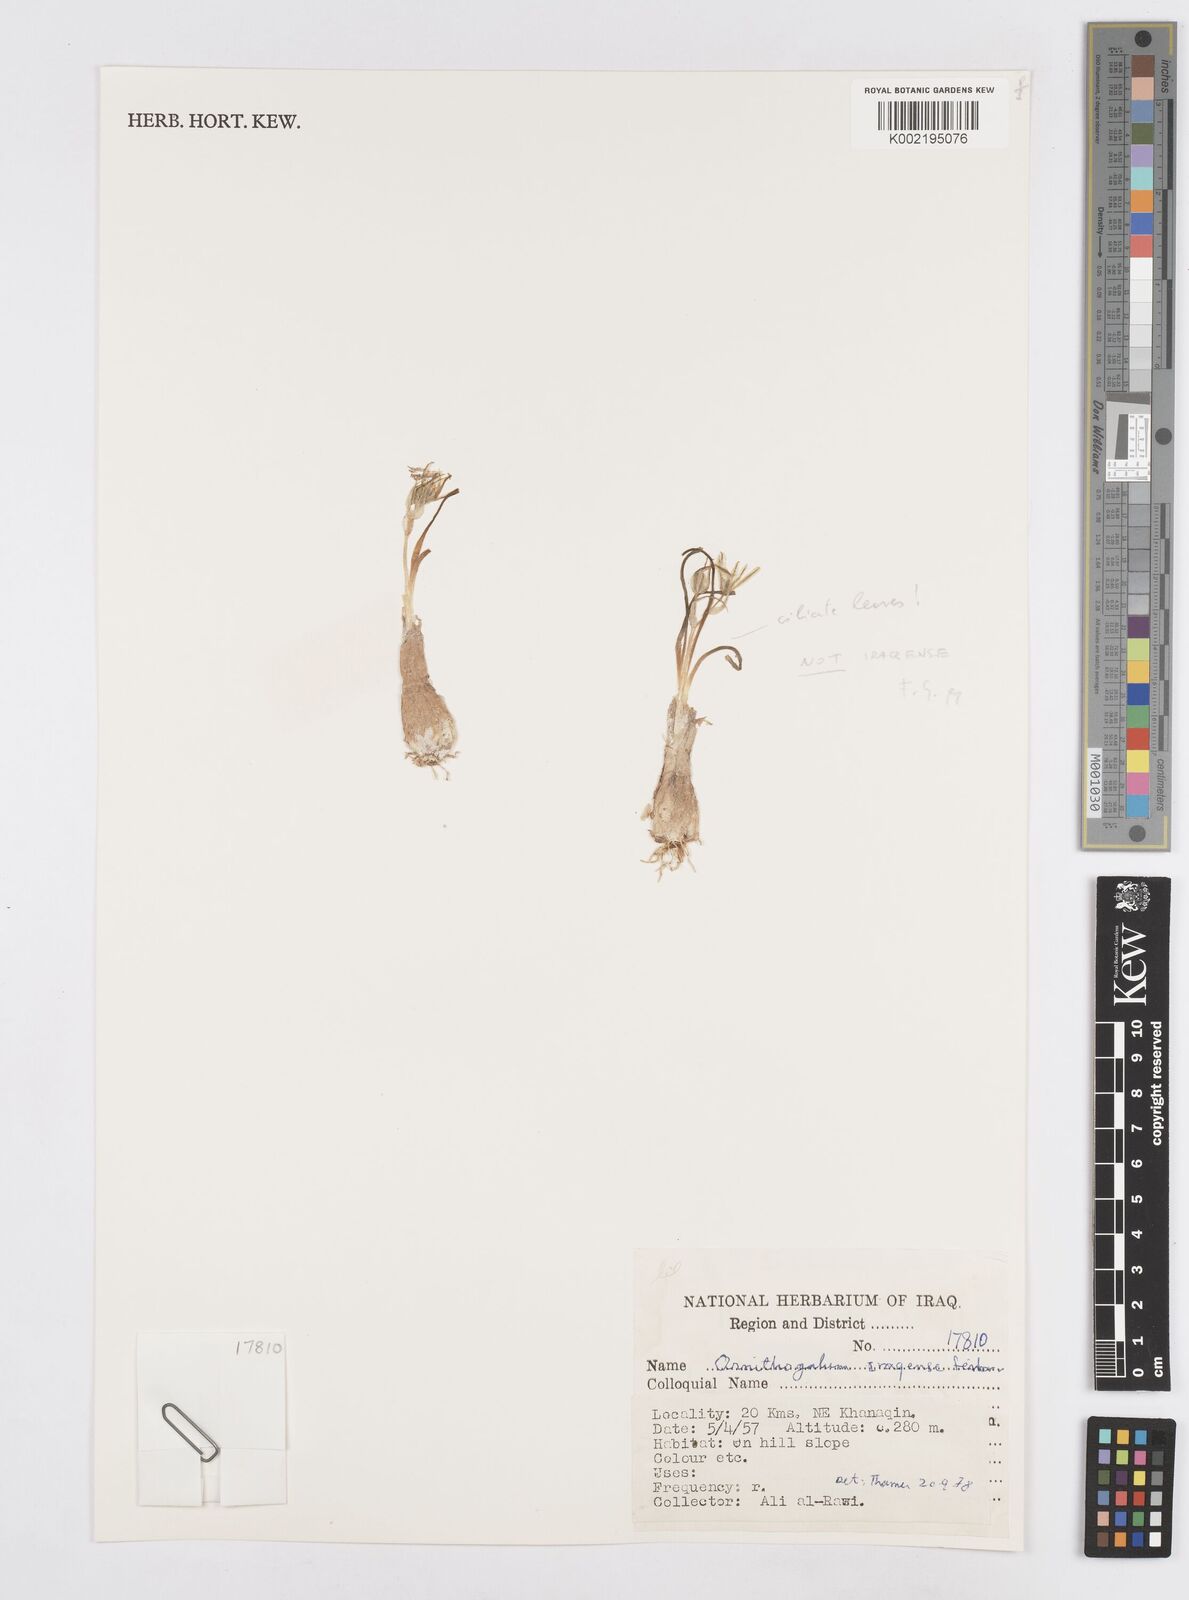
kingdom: Plantae
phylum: Tracheophyta
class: Liliopsida
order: Asparagales
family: Asparagaceae
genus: Ornithogalum
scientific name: Ornithogalum iraqense
